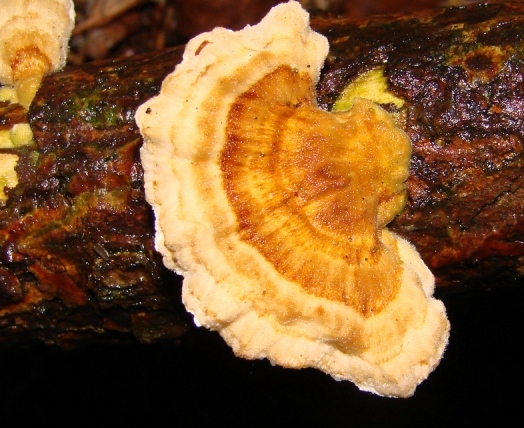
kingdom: Fungi
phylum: Basidiomycota
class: Agaricomycetes
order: Polyporales
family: Polyporaceae
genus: Trametes
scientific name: Trametes ochracea
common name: bæltet læderporesvamp
